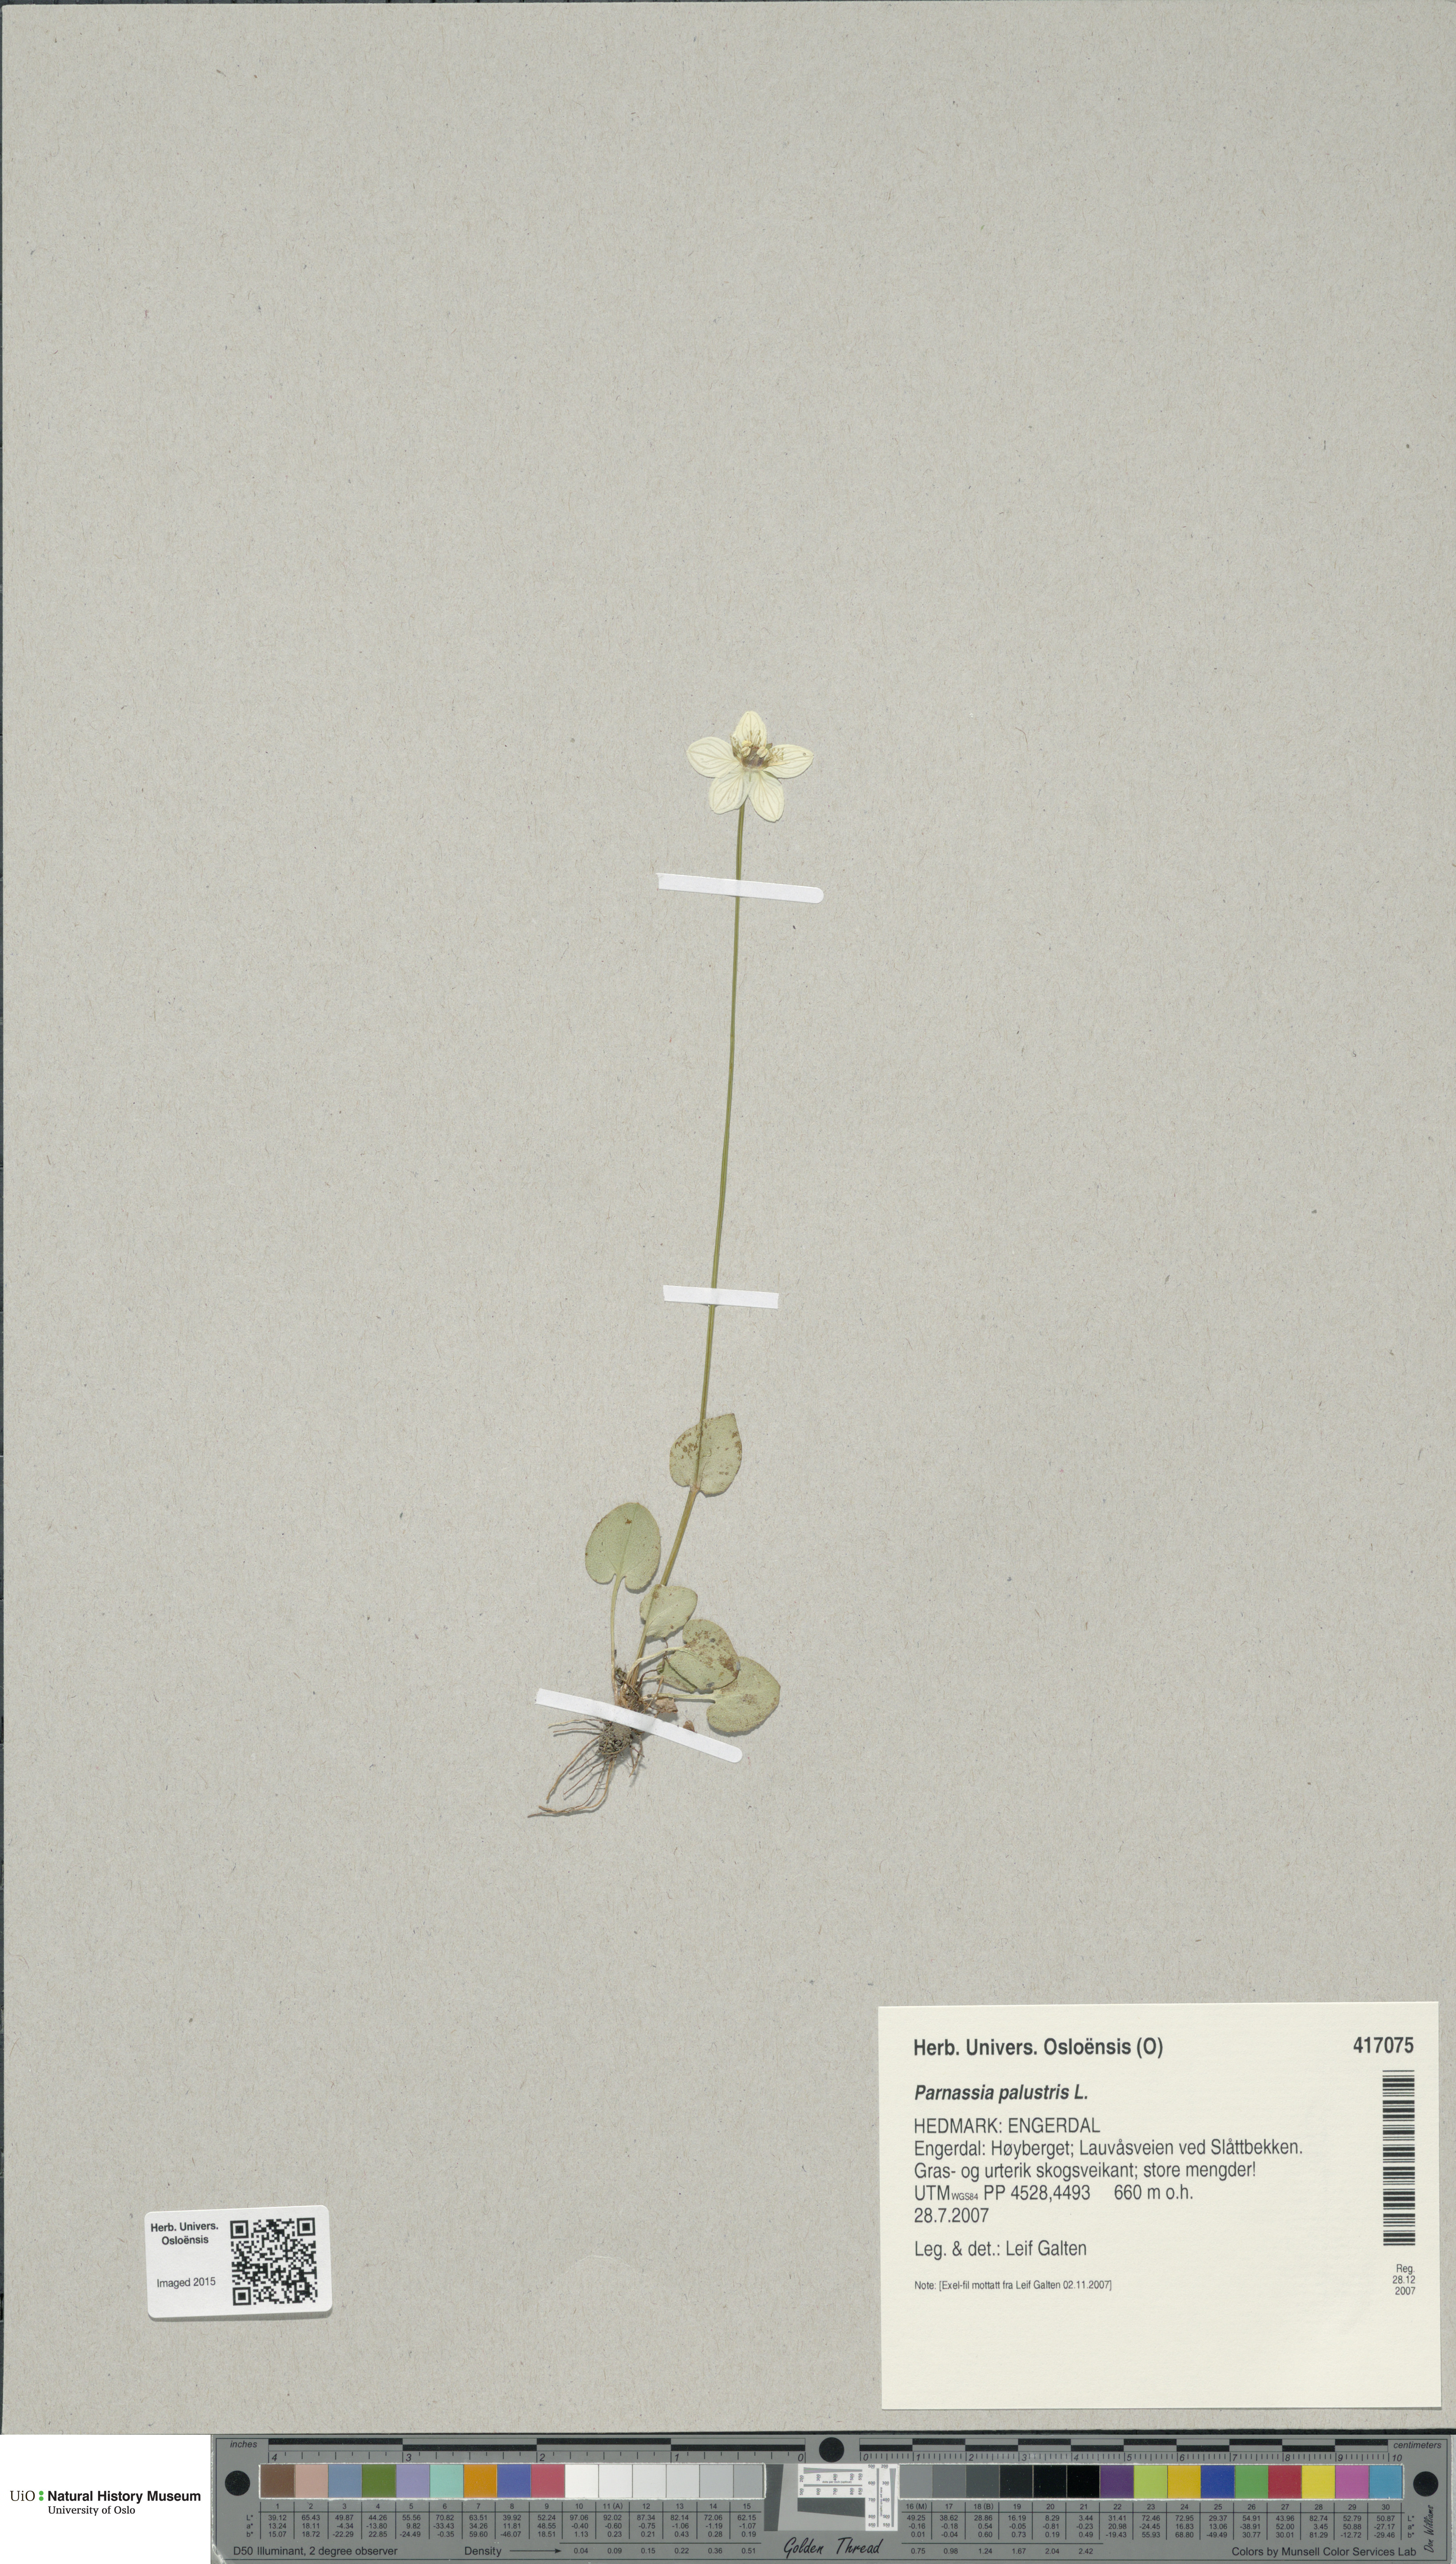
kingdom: Plantae
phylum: Tracheophyta
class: Magnoliopsida
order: Celastrales
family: Parnassiaceae
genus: Parnassia
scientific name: Parnassia palustris
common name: Grass-of-parnassus
